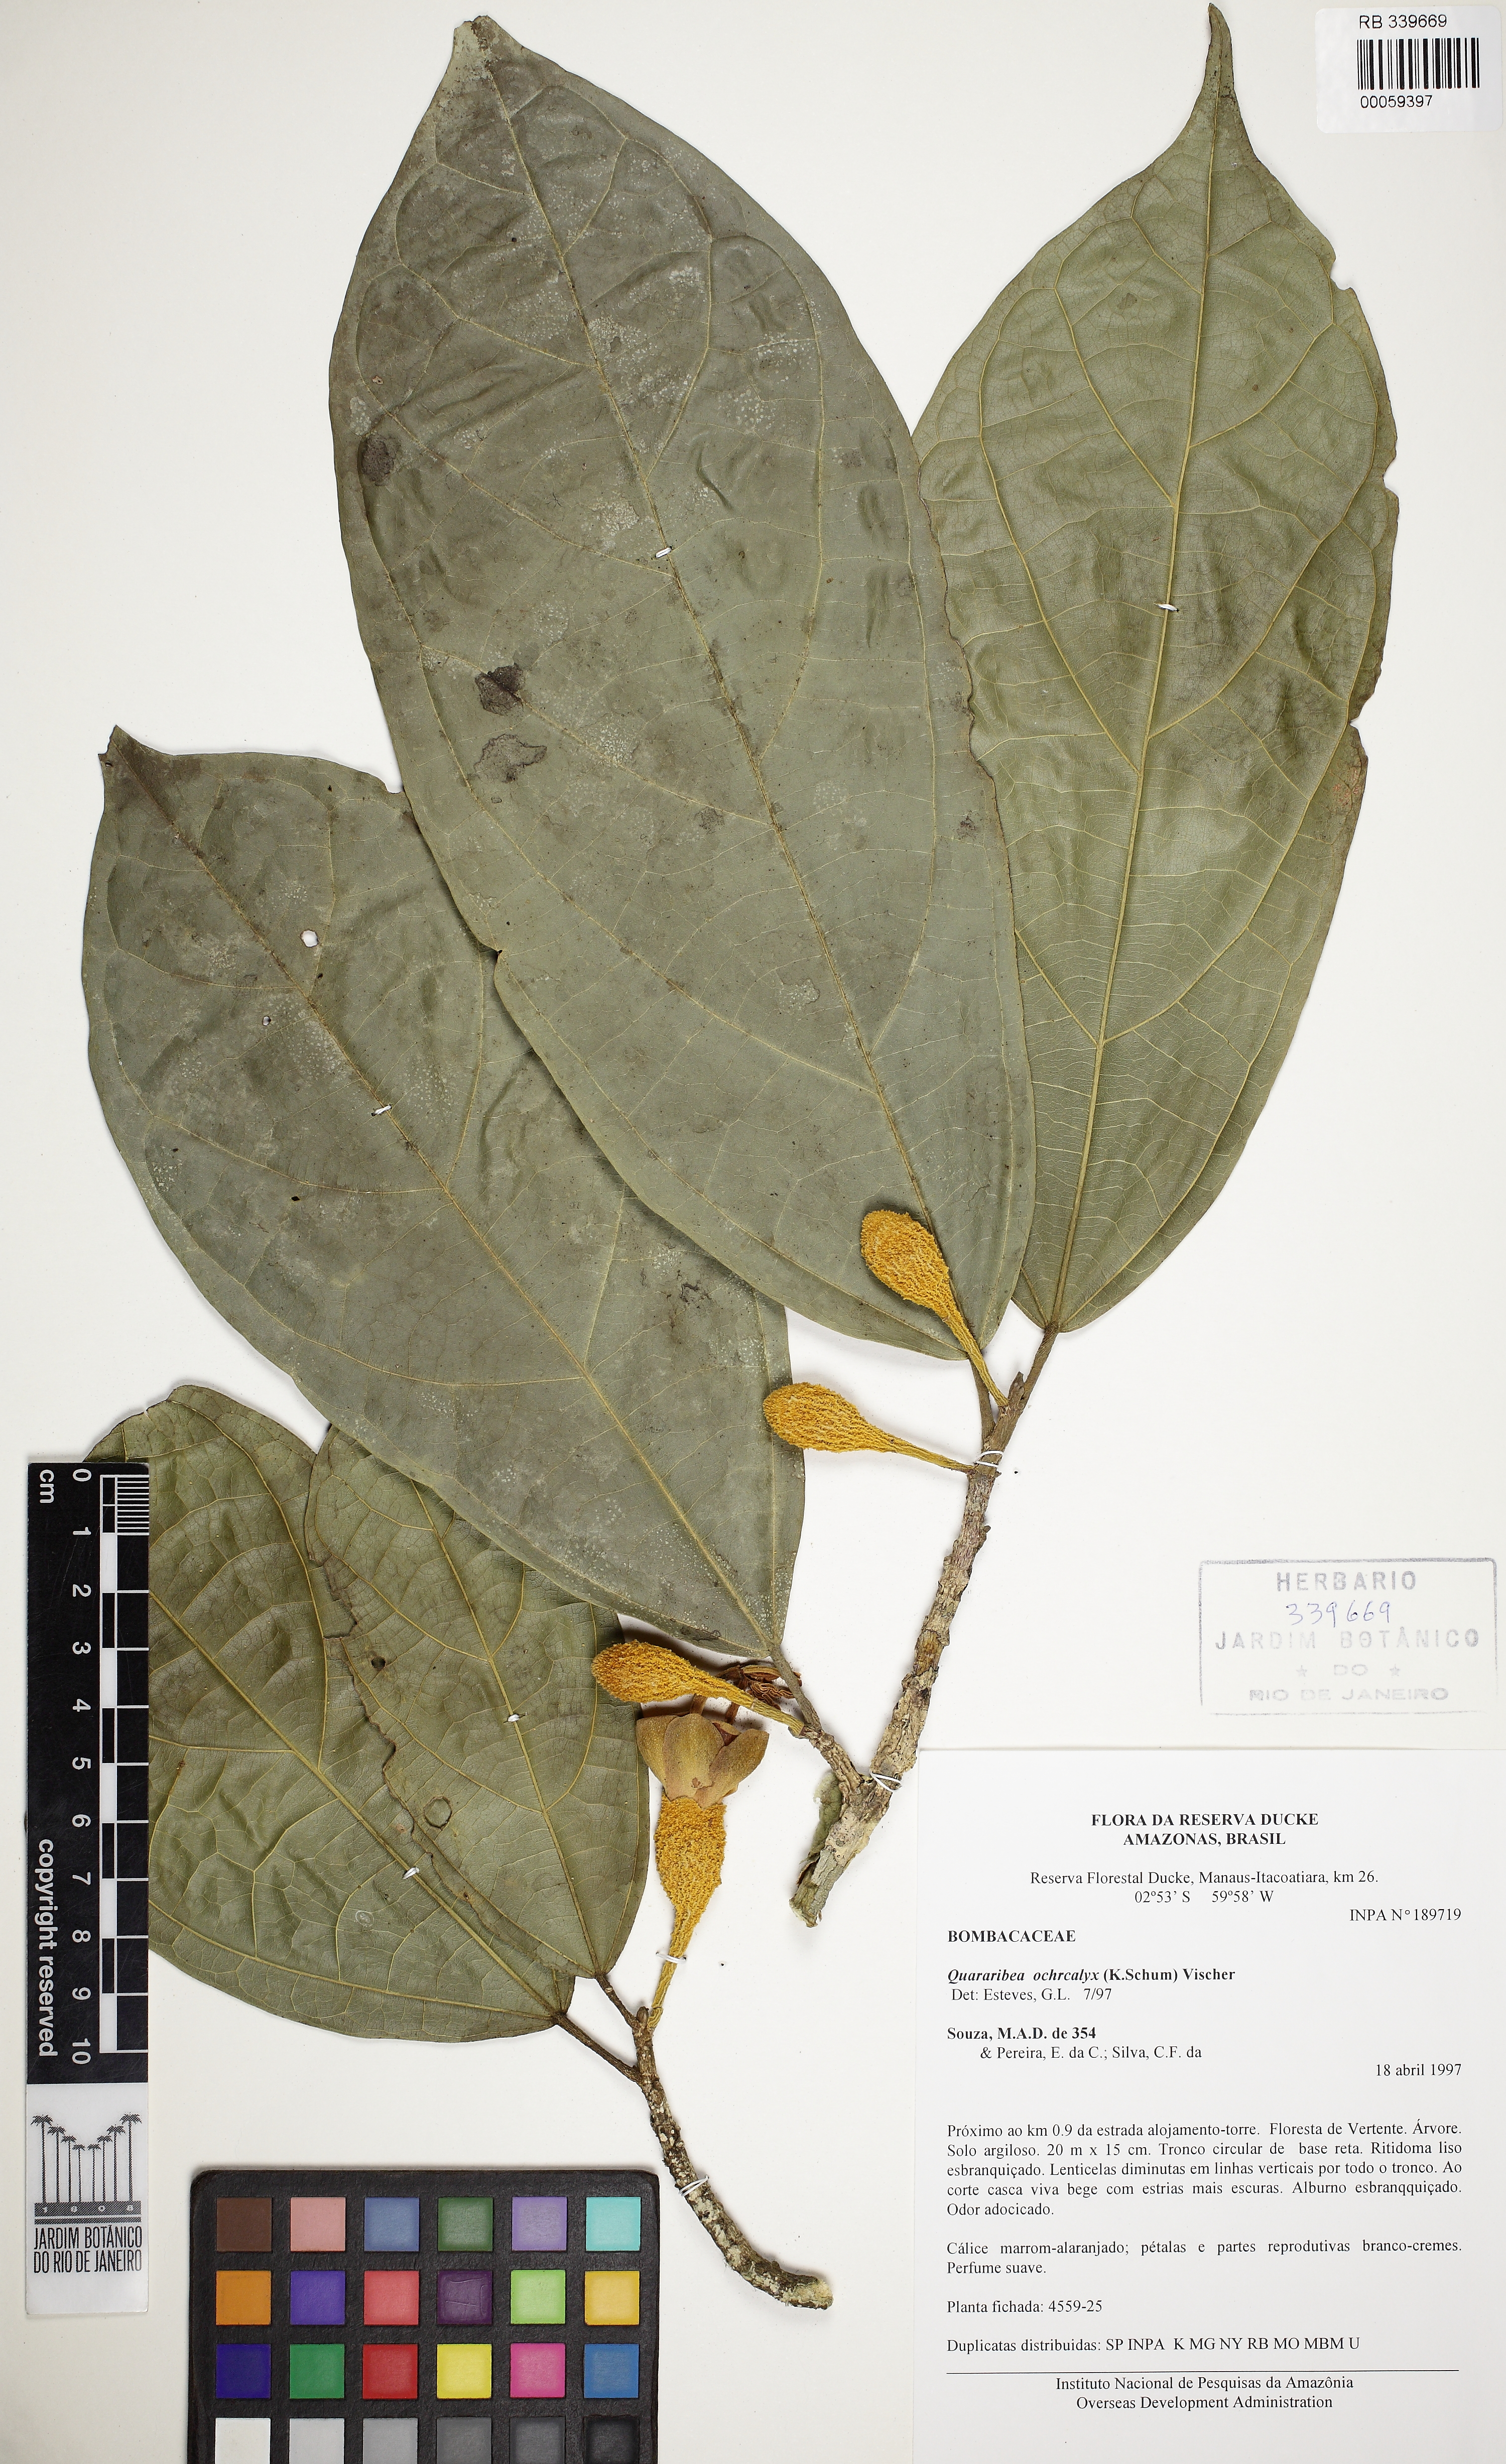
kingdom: Plantae
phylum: Tracheophyta
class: Magnoliopsida
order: Malvales
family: Malvaceae
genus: Matisia
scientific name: Matisia ochrocalyx
